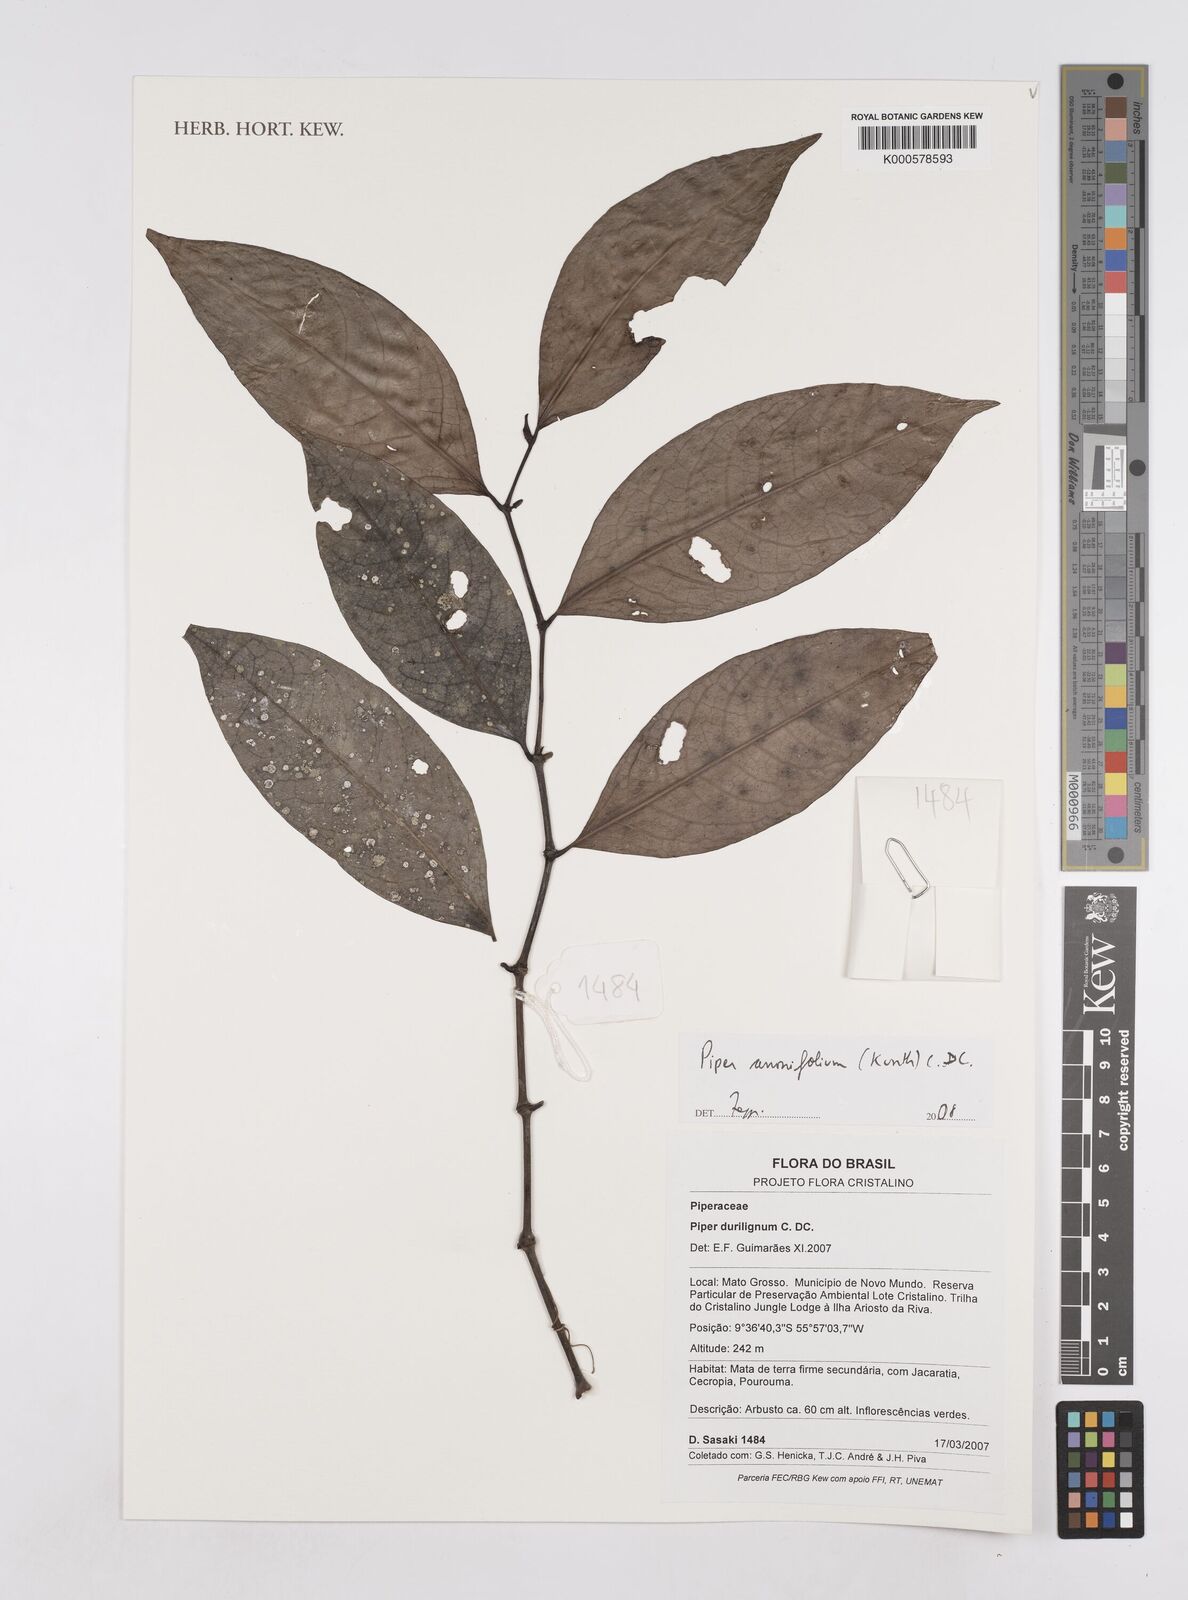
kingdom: Plantae
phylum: Tracheophyta
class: Magnoliopsida
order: Piperales
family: Piperaceae
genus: Piper
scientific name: Piper
